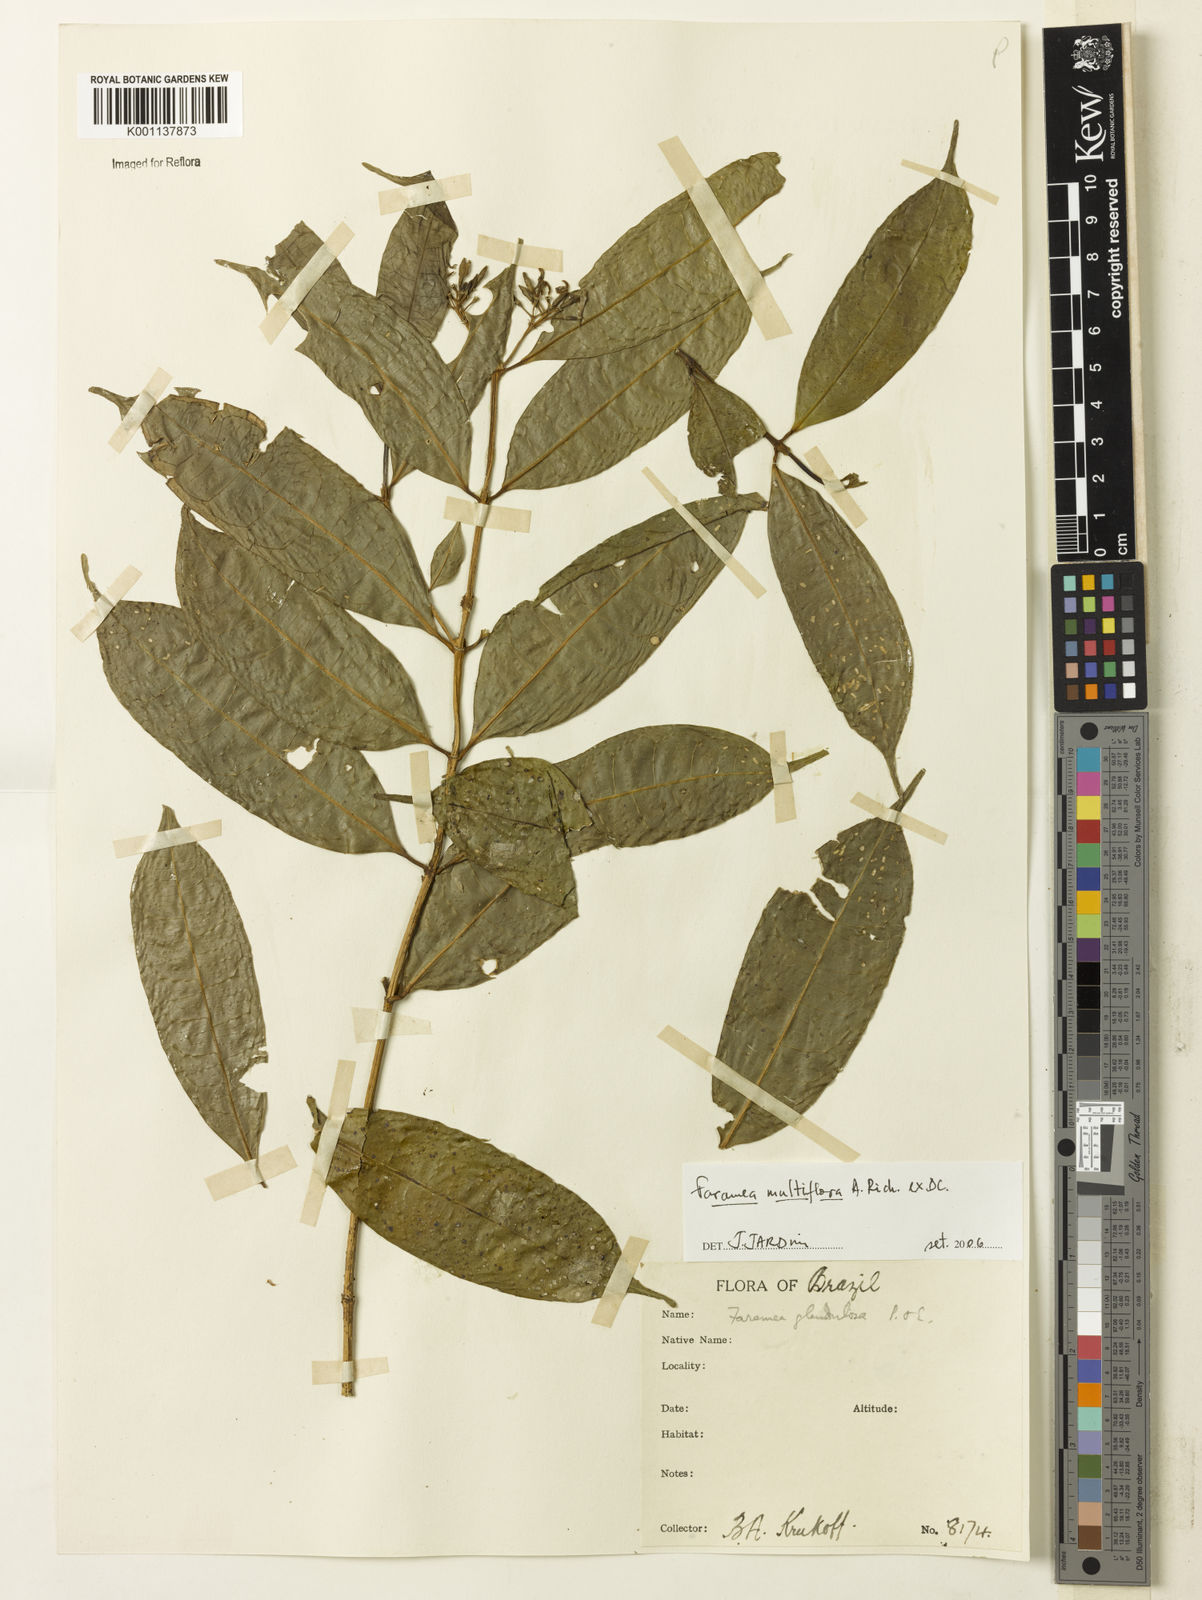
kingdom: Plantae
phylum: Tracheophyta
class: Magnoliopsida
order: Gentianales
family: Rubiaceae
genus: Faramea
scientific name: Faramea multiflora
